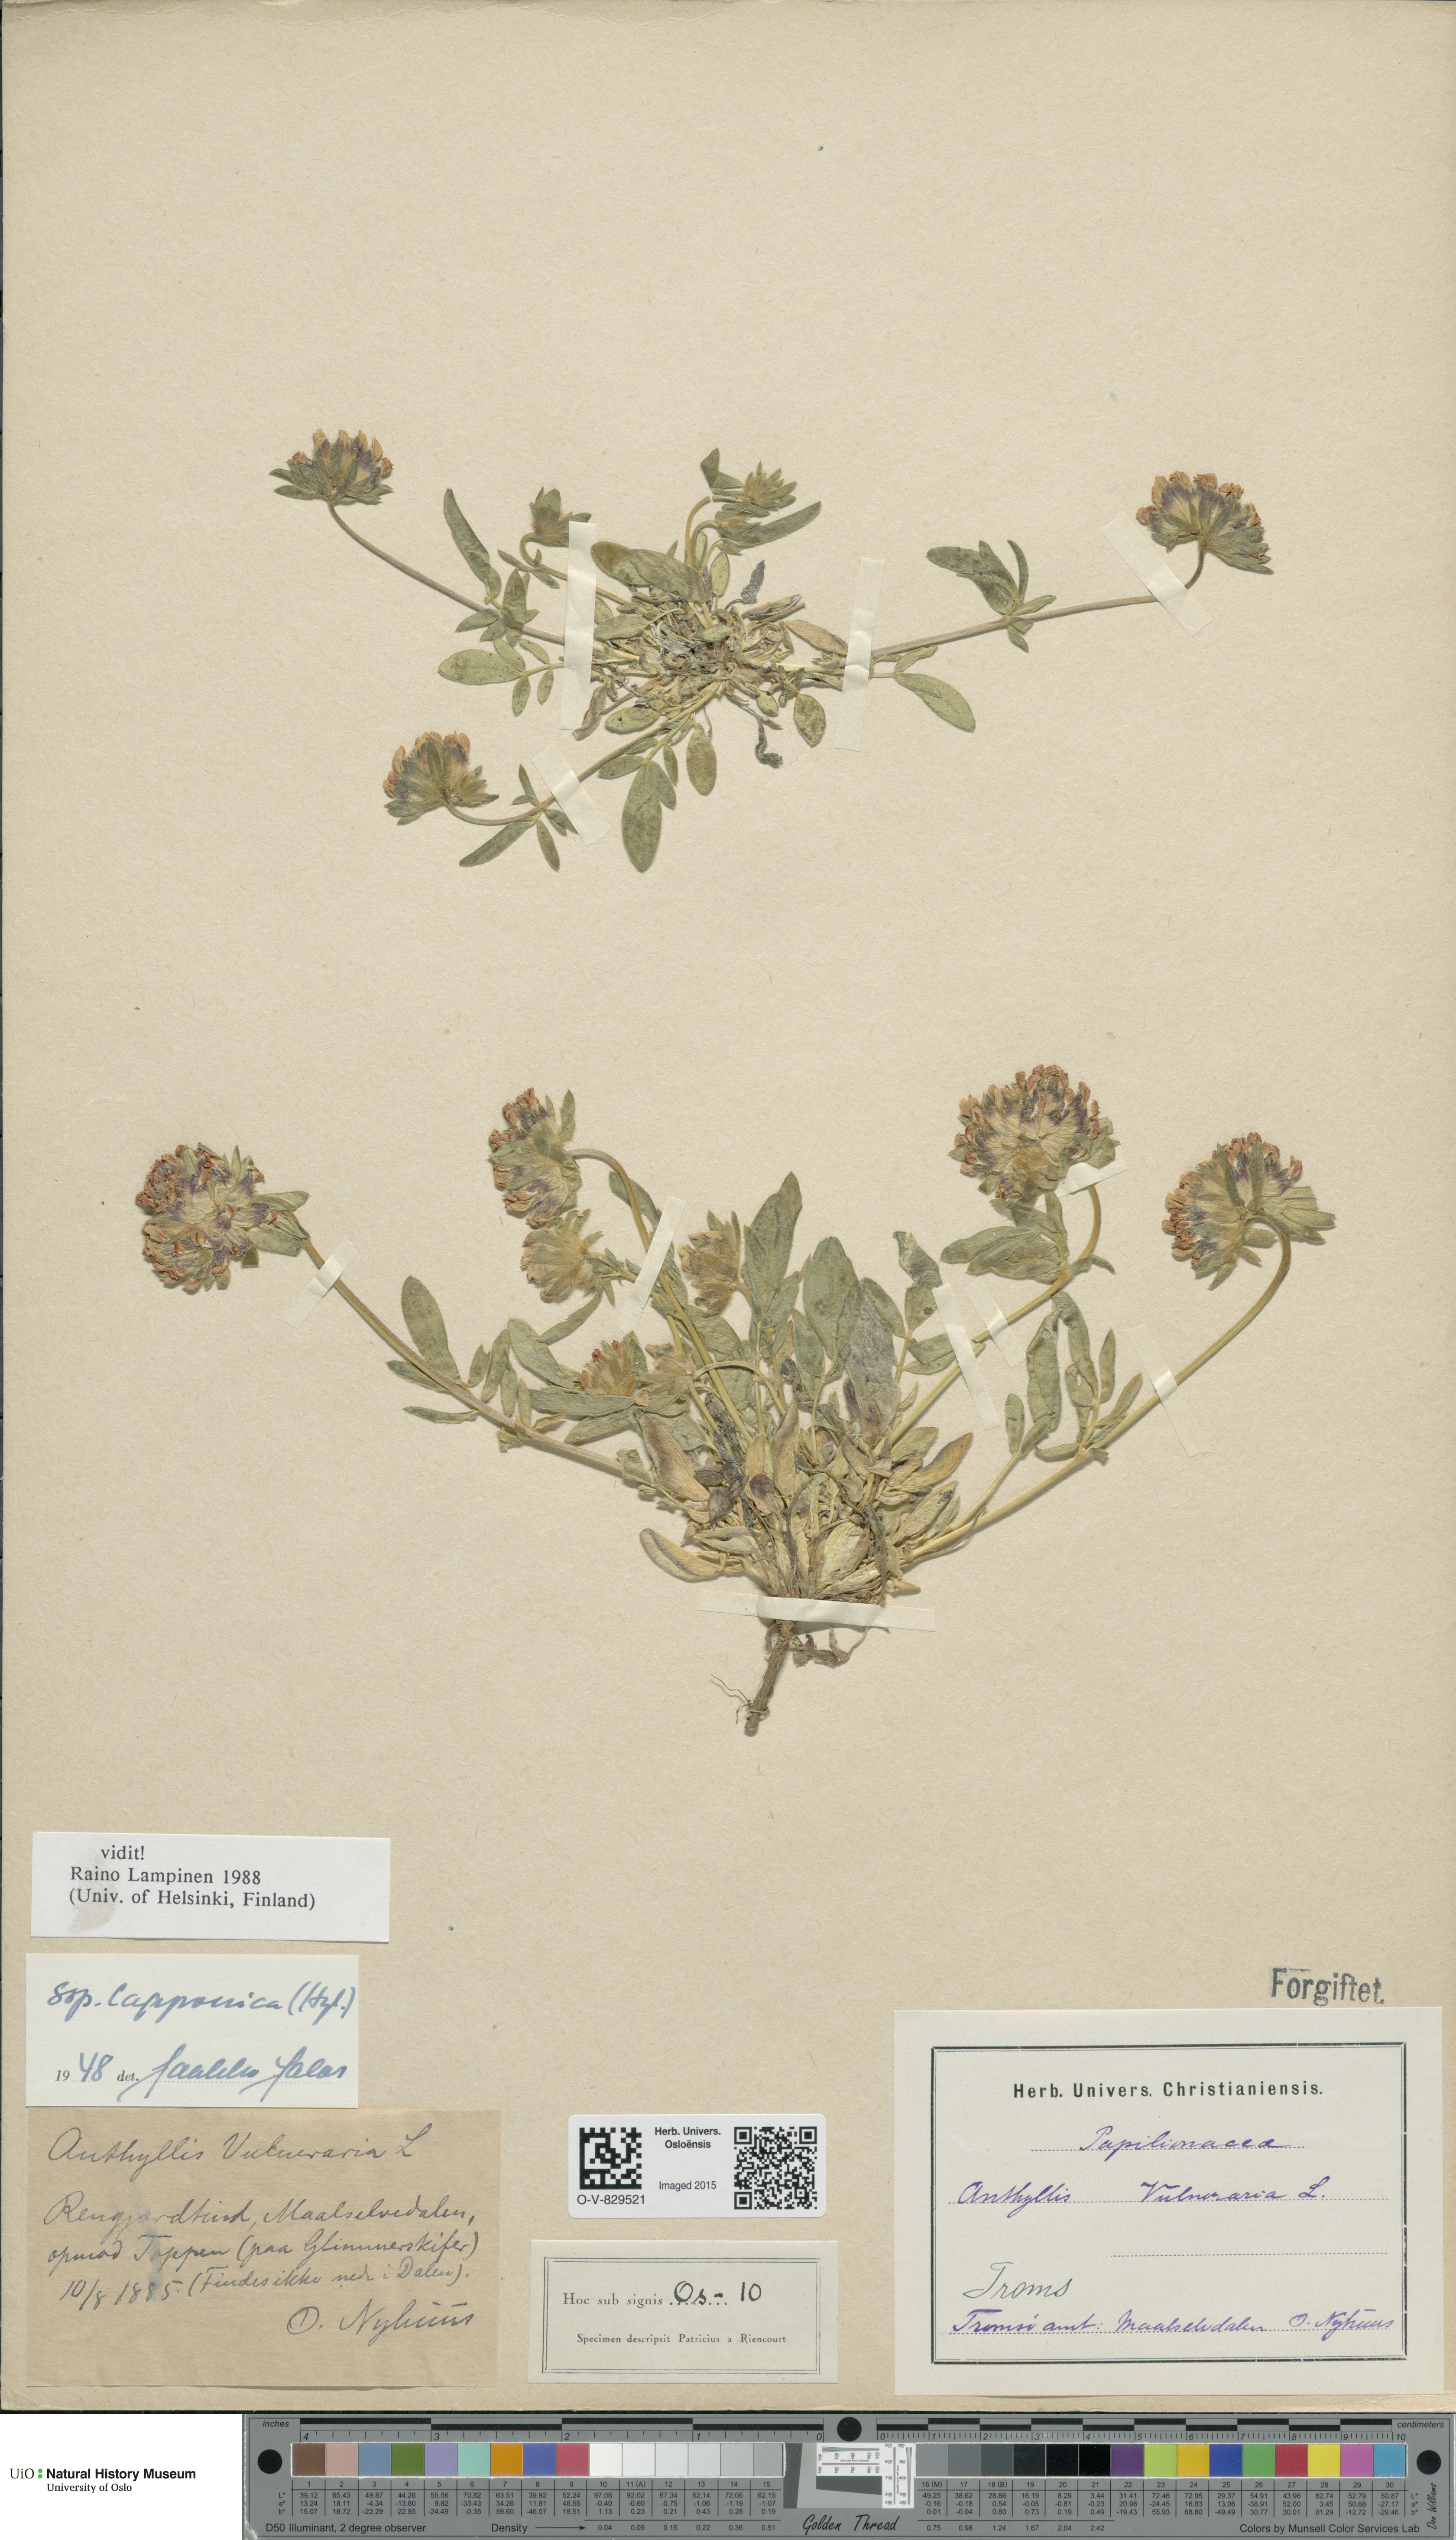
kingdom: Plantae
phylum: Tracheophyta
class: Magnoliopsida
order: Fabales
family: Fabaceae
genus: Anthyllis
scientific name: Anthyllis vulneraria
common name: Kidney vetch
